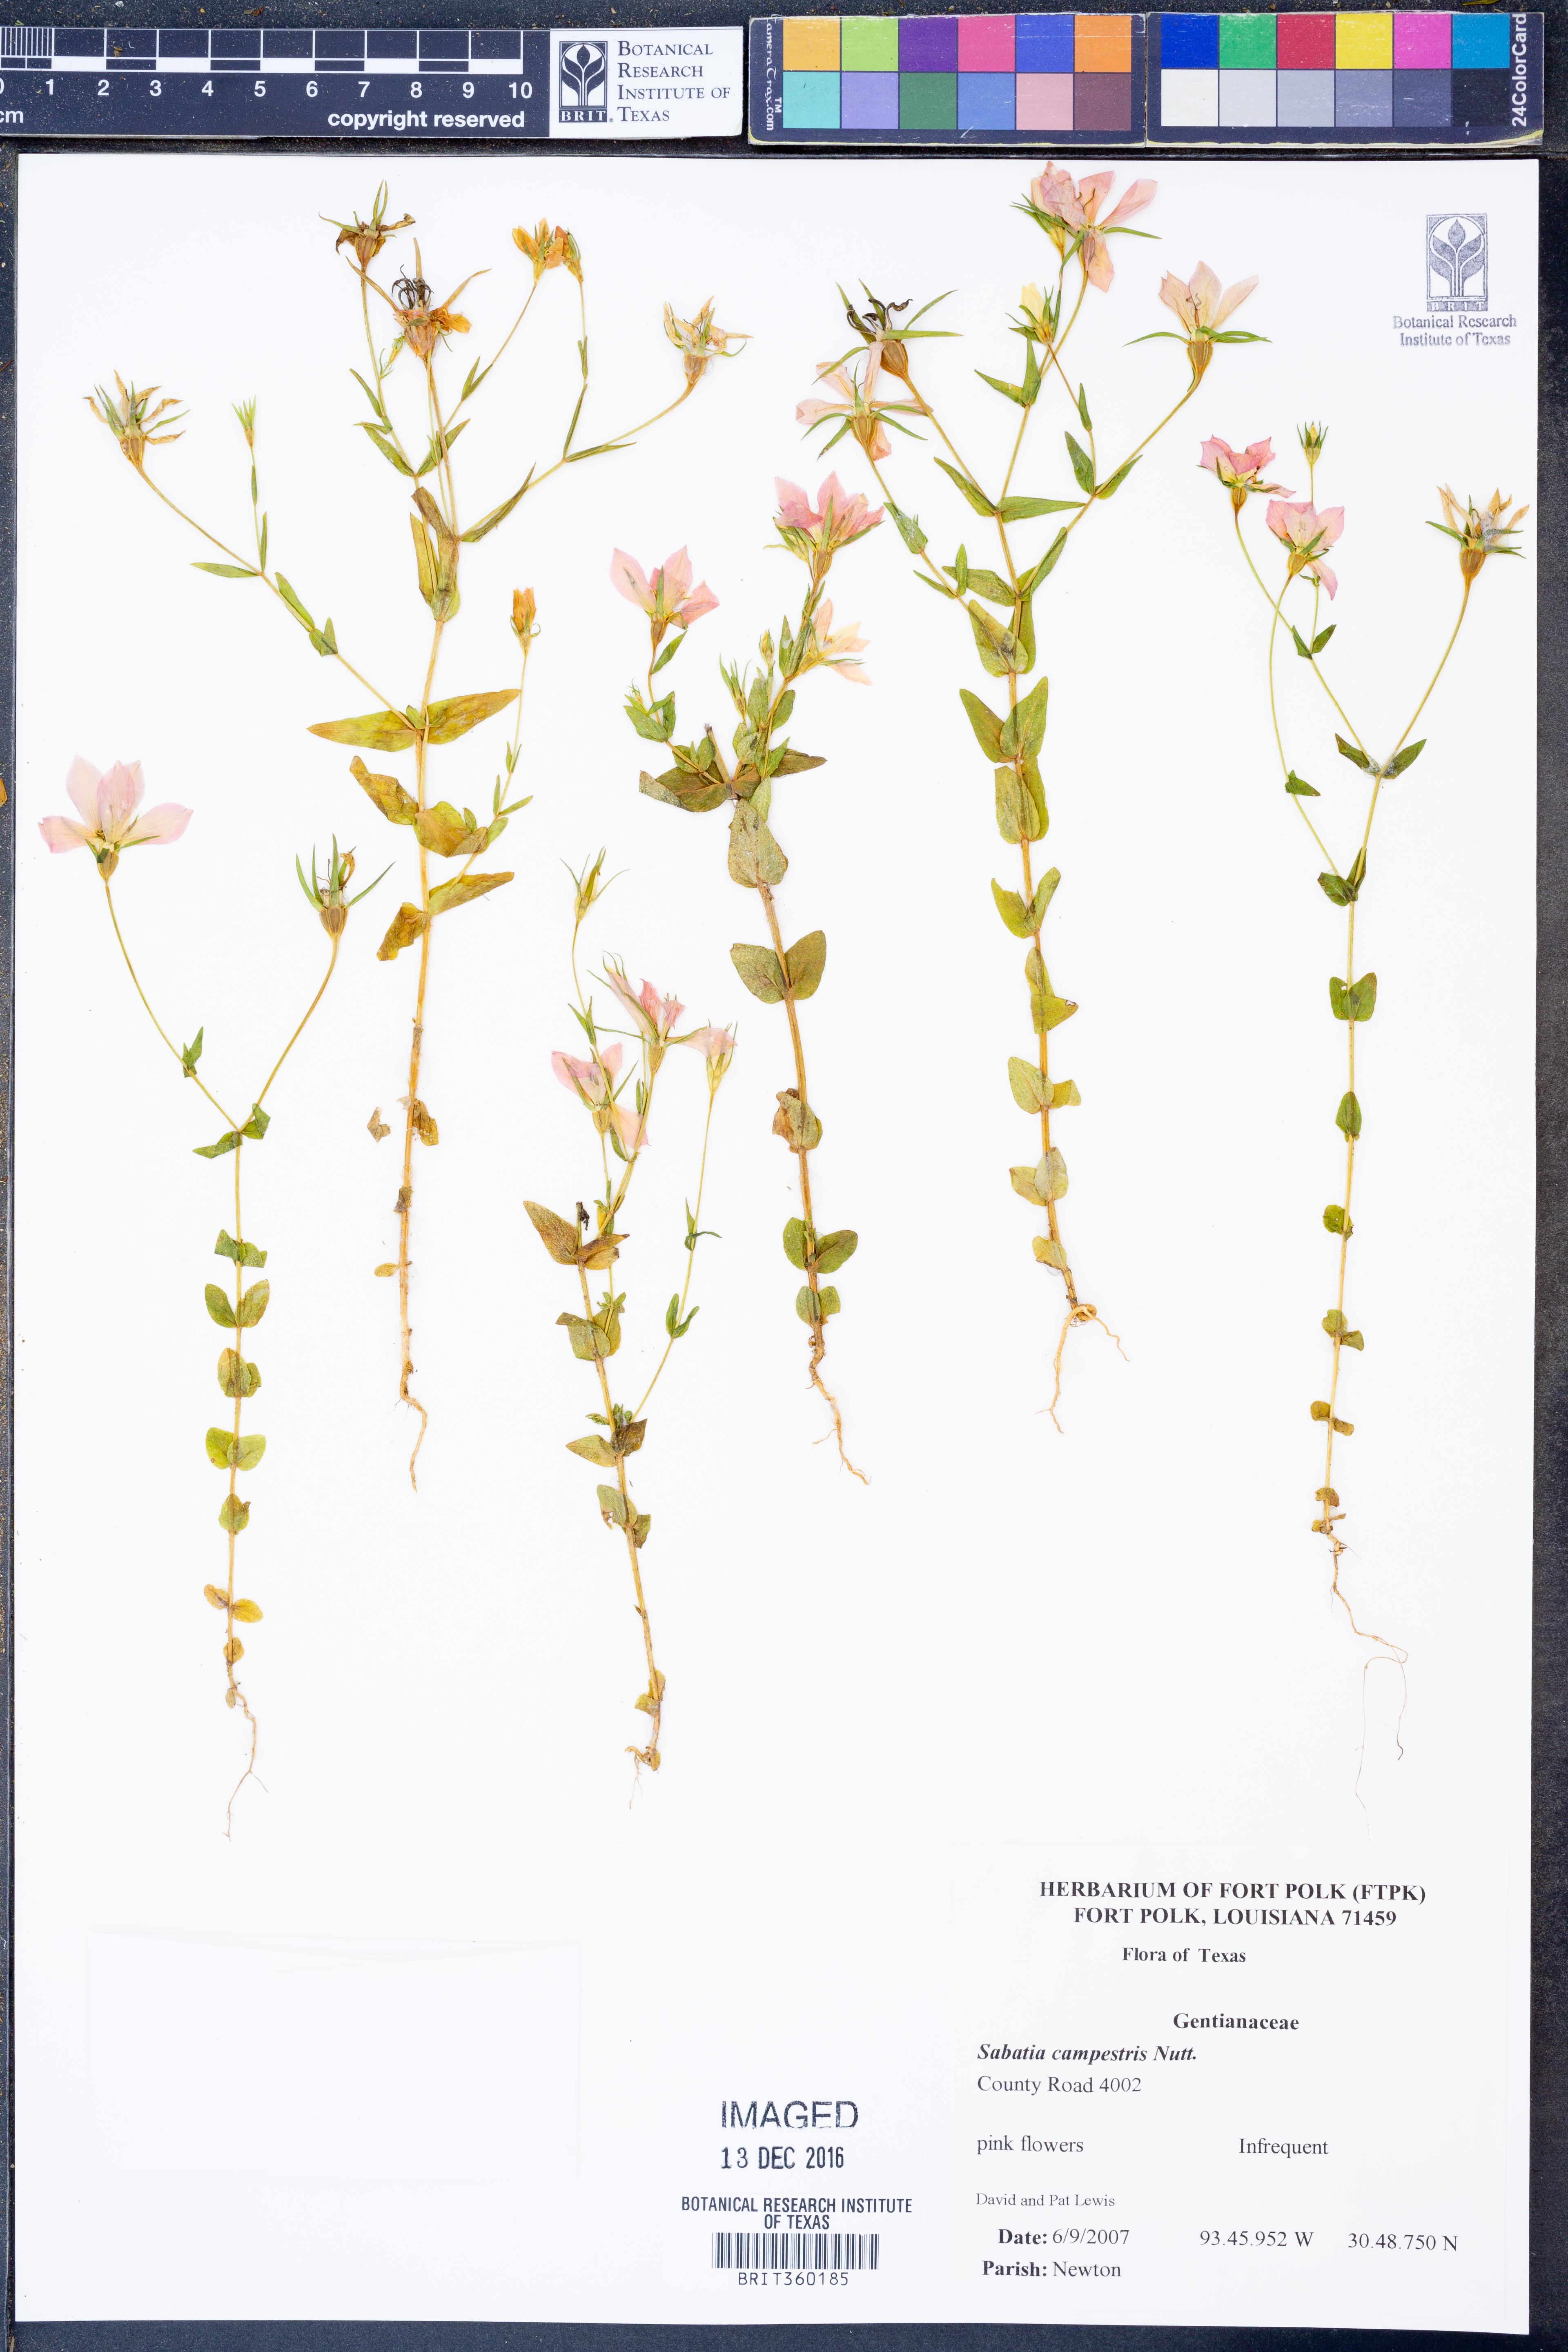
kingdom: Plantae
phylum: Tracheophyta
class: Magnoliopsida
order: Gentianales
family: Gentianaceae
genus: Sabatia
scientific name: Sabatia campestris
